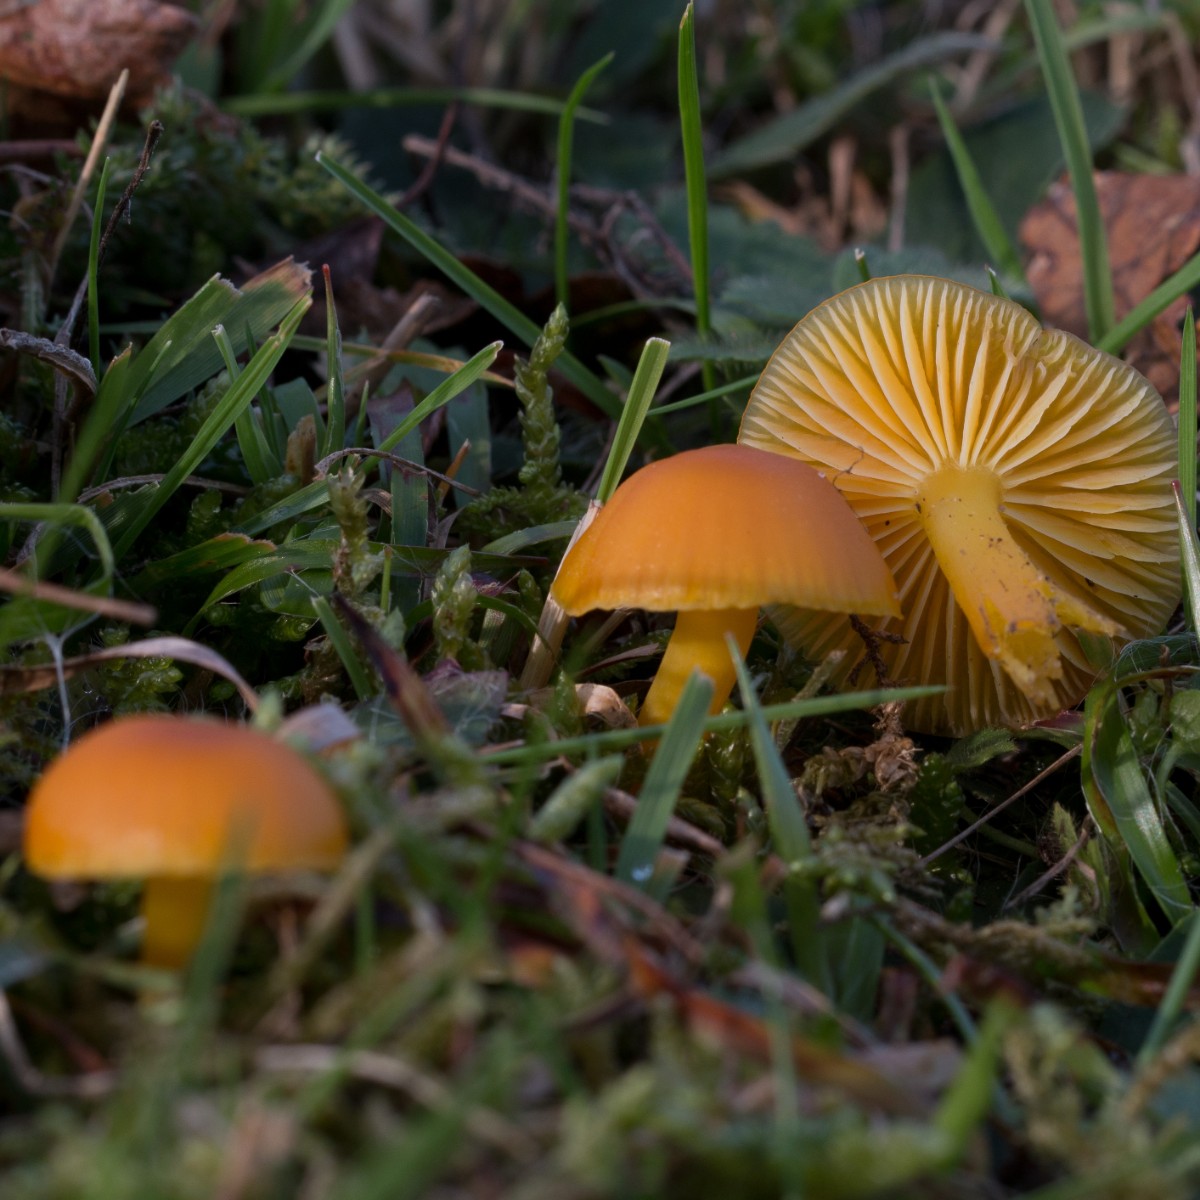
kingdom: Fungi
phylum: Basidiomycota
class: Agaricomycetes
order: Agaricales
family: Hygrophoraceae
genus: Hygrocybe
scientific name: Hygrocybe ceracea
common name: voksgul vokshat
